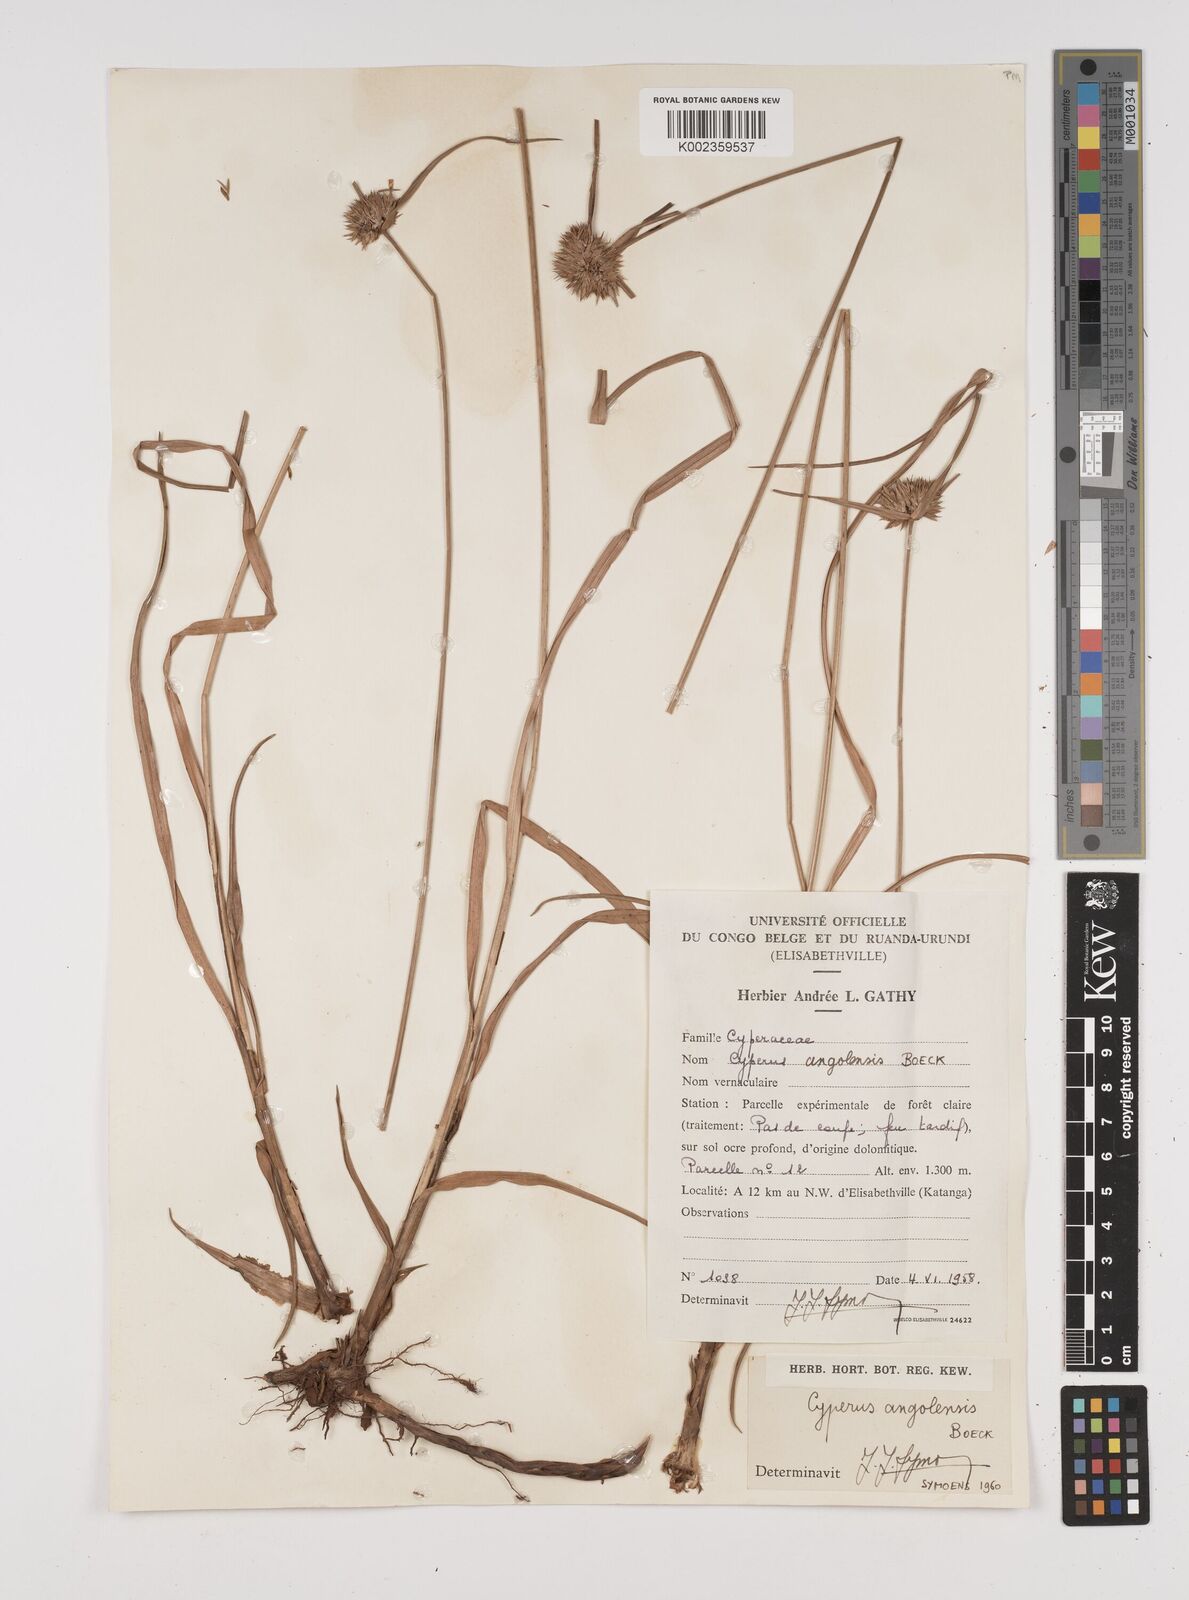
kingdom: Plantae
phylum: Tracheophyta
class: Liliopsida
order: Poales
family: Cyperaceae
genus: Cyperus
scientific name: Cyperus angolensis
